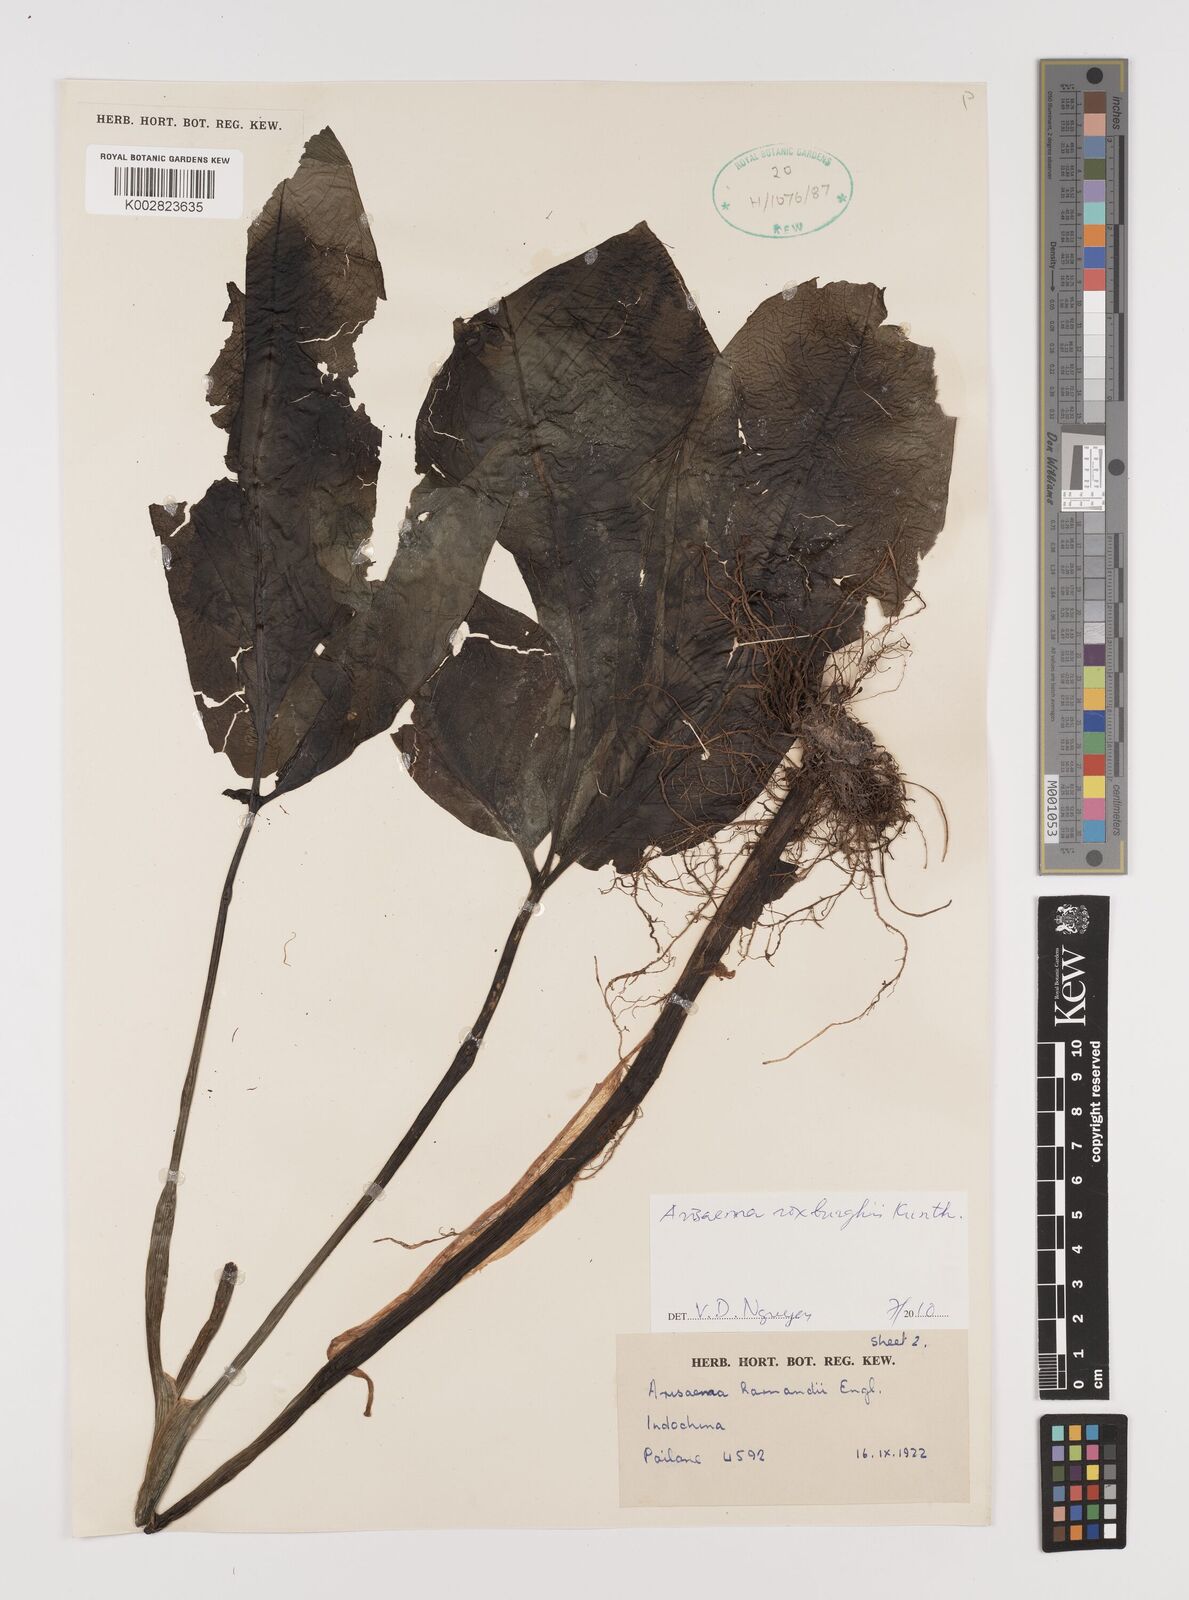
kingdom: Plantae
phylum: Tracheophyta
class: Liliopsida
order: Alismatales
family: Araceae
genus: Arisaema
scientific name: Arisaema roxburghii
